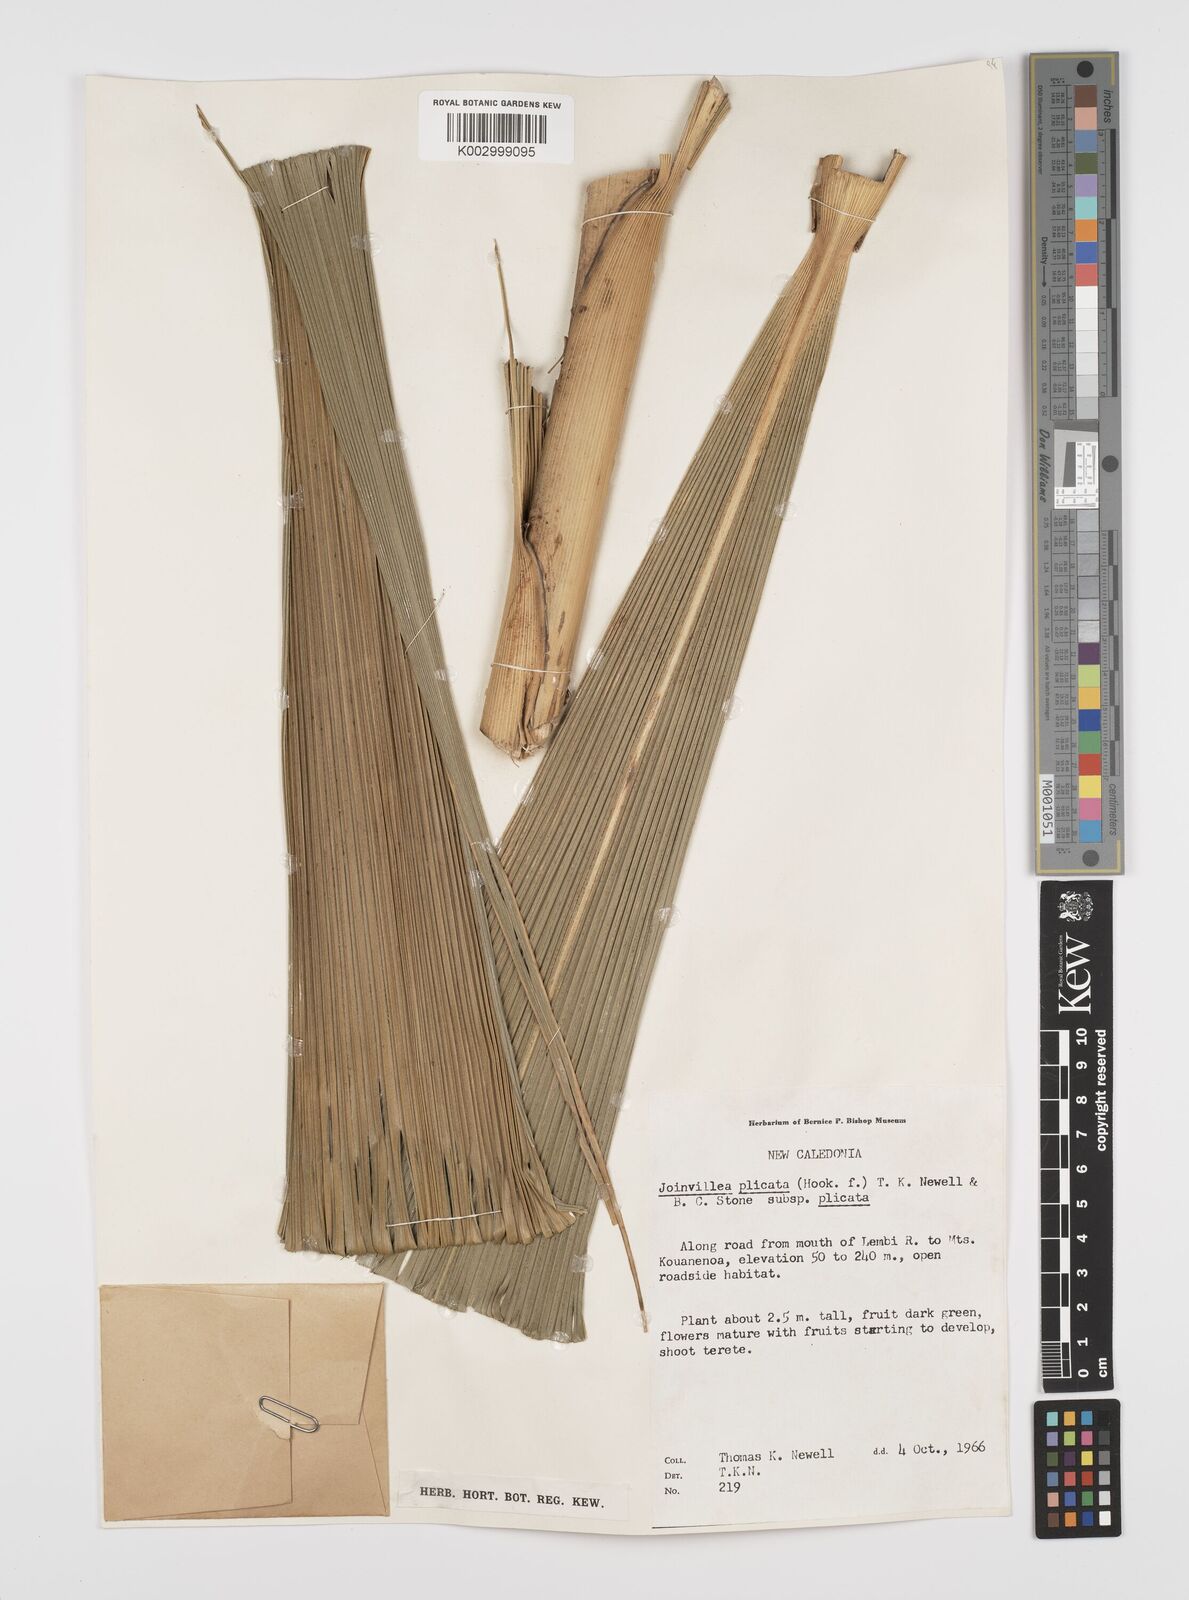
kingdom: Plantae
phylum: Tracheophyta
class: Liliopsida
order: Poales
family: Joinvilleaceae
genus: Joinvillea
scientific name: Joinvillea plicata
